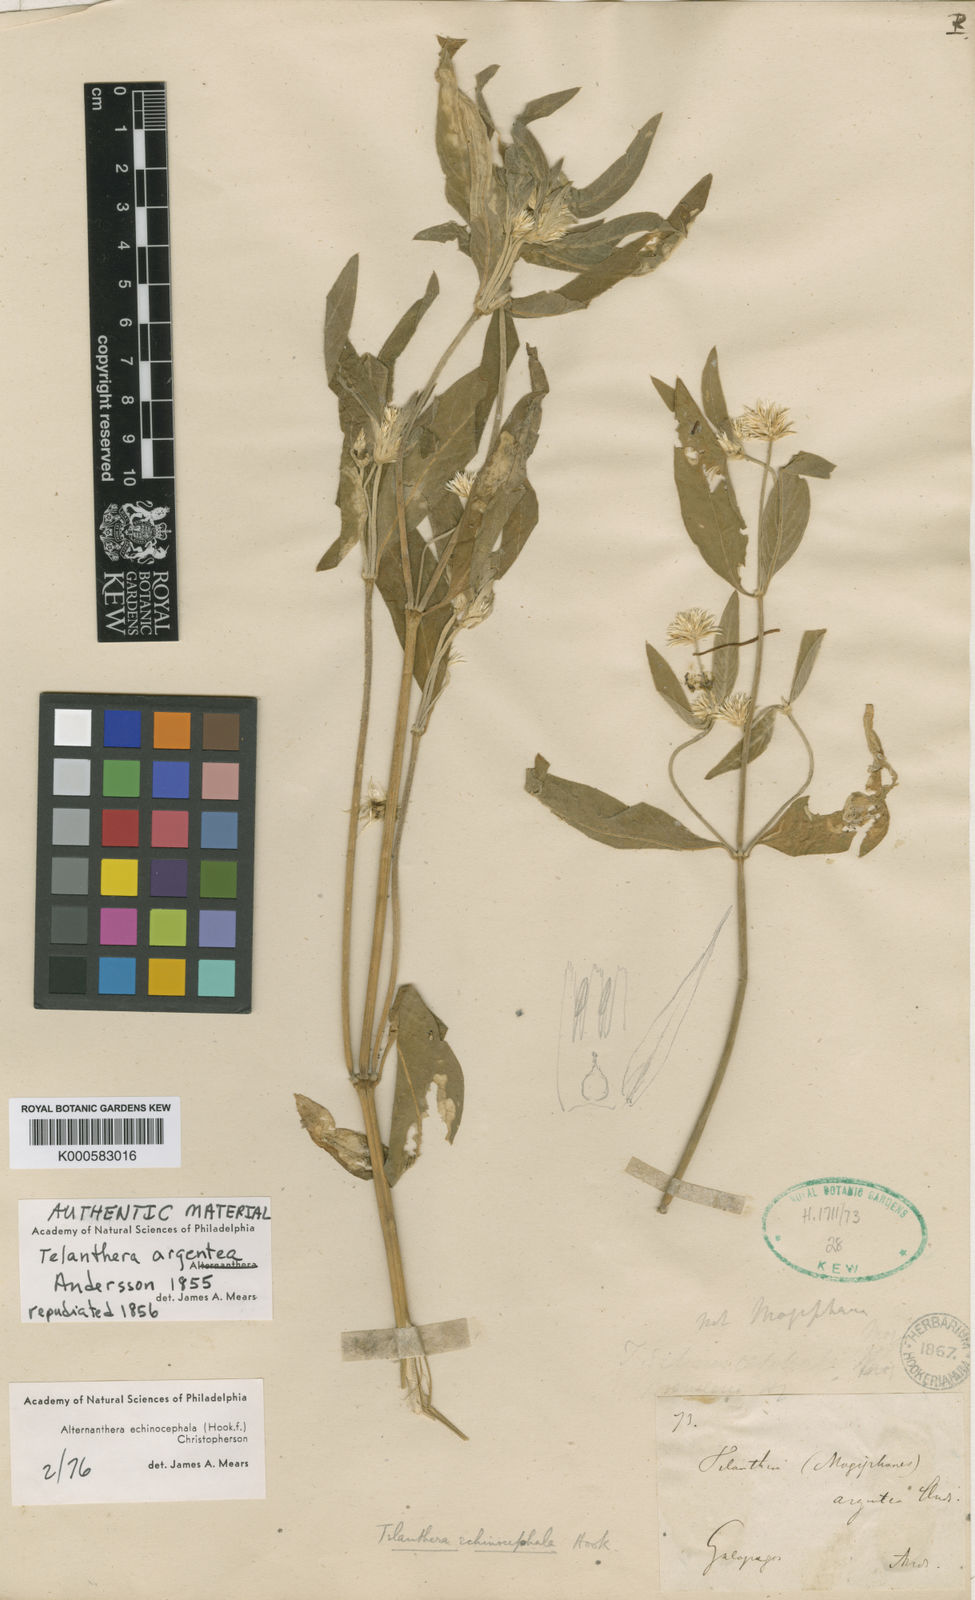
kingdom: Plantae
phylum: Tracheophyta
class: Magnoliopsida
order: Caryophyllales
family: Amaranthaceae
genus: Alternanthera
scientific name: Alternanthera echinocephala
